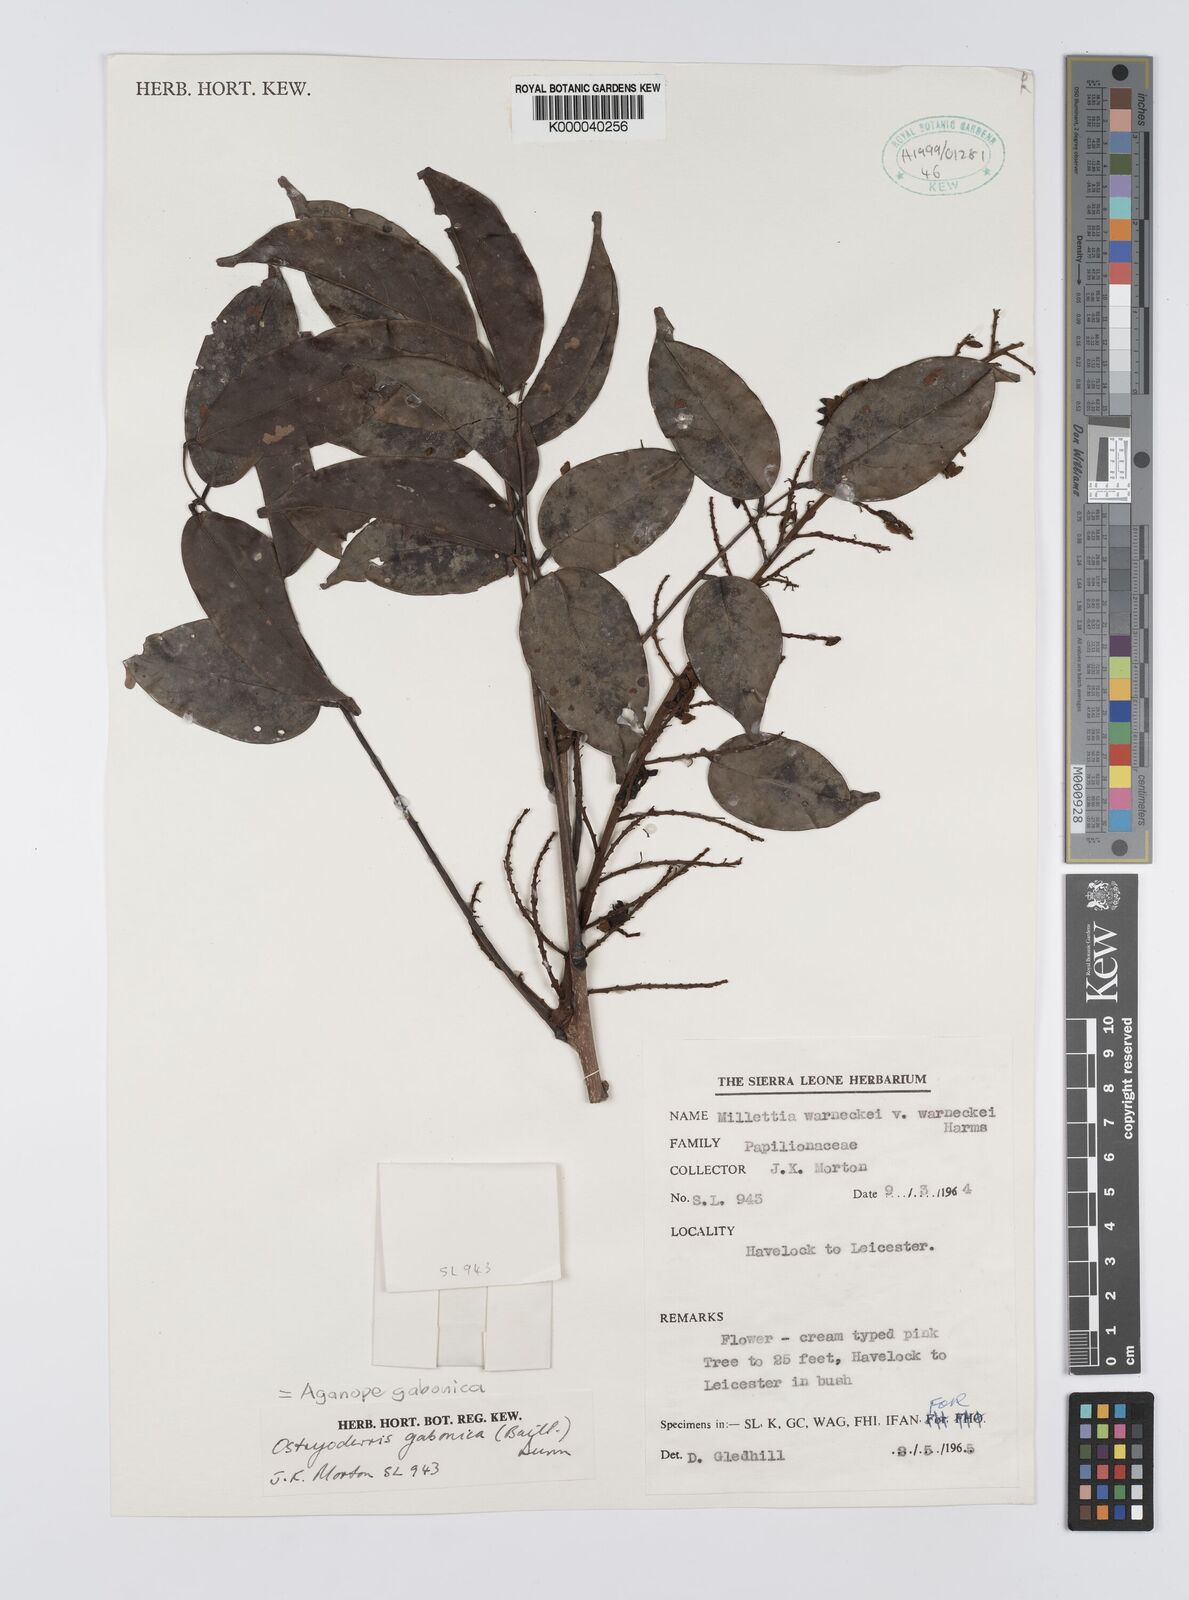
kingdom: Plantae
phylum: Tracheophyta
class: Magnoliopsida
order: Fabales
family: Fabaceae
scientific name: Fabaceae
